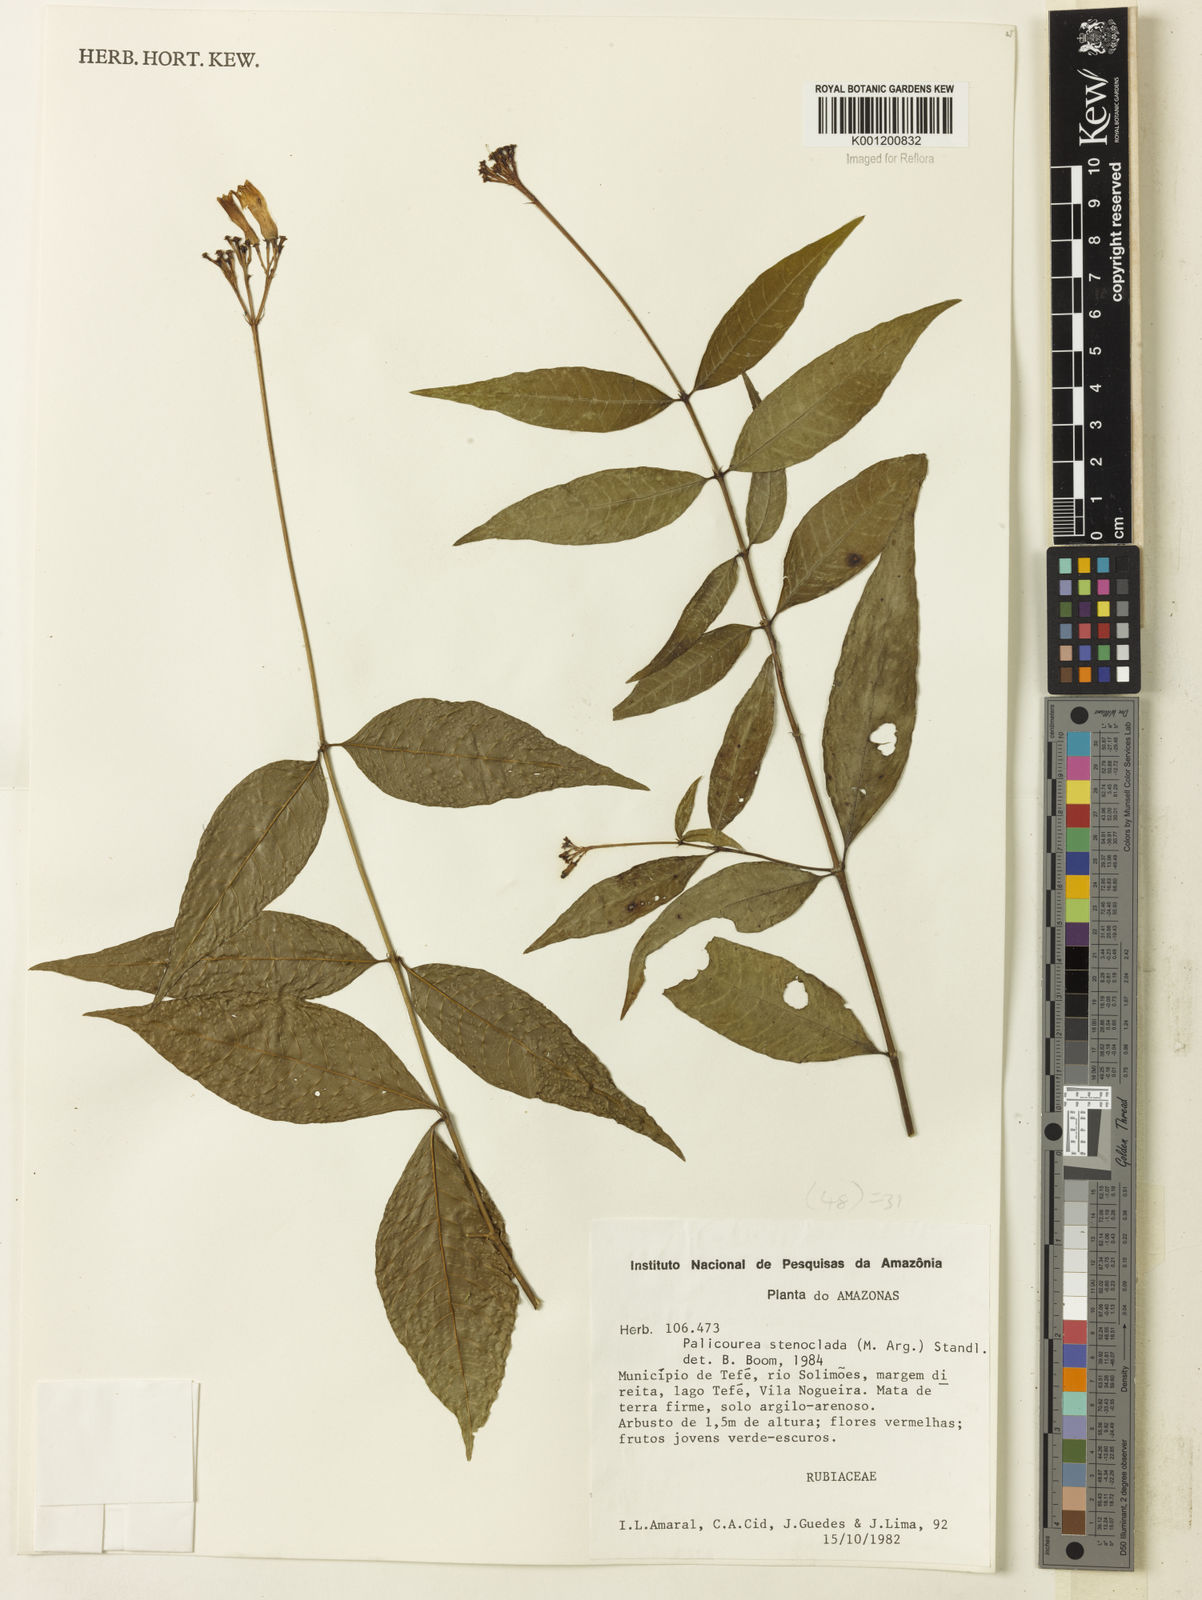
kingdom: Plantae
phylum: Tracheophyta
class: Magnoliopsida
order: Gentianales
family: Rubiaceae
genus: Palicourea
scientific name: Palicourea croceoides
